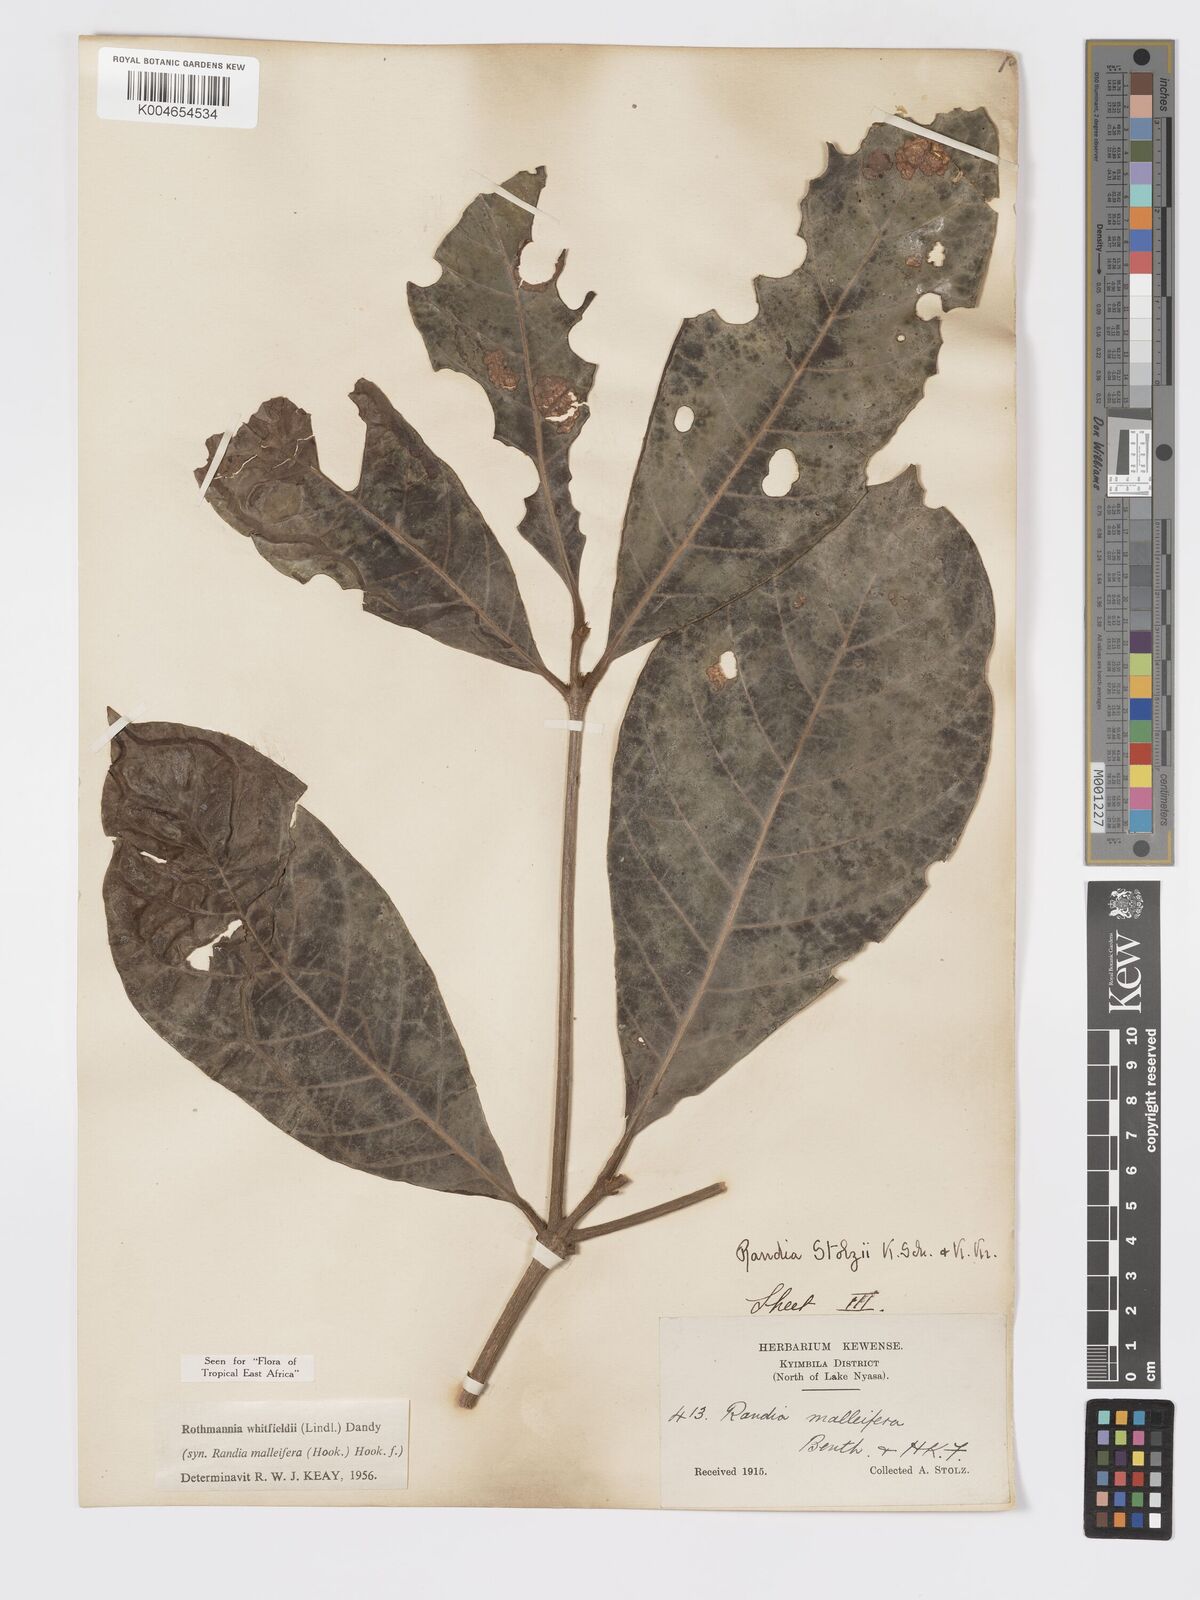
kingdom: Plantae
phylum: Tracheophyta
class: Magnoliopsida
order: Gentianales
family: Rubiaceae
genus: Rothmannia
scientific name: Rothmannia whitfieldii
